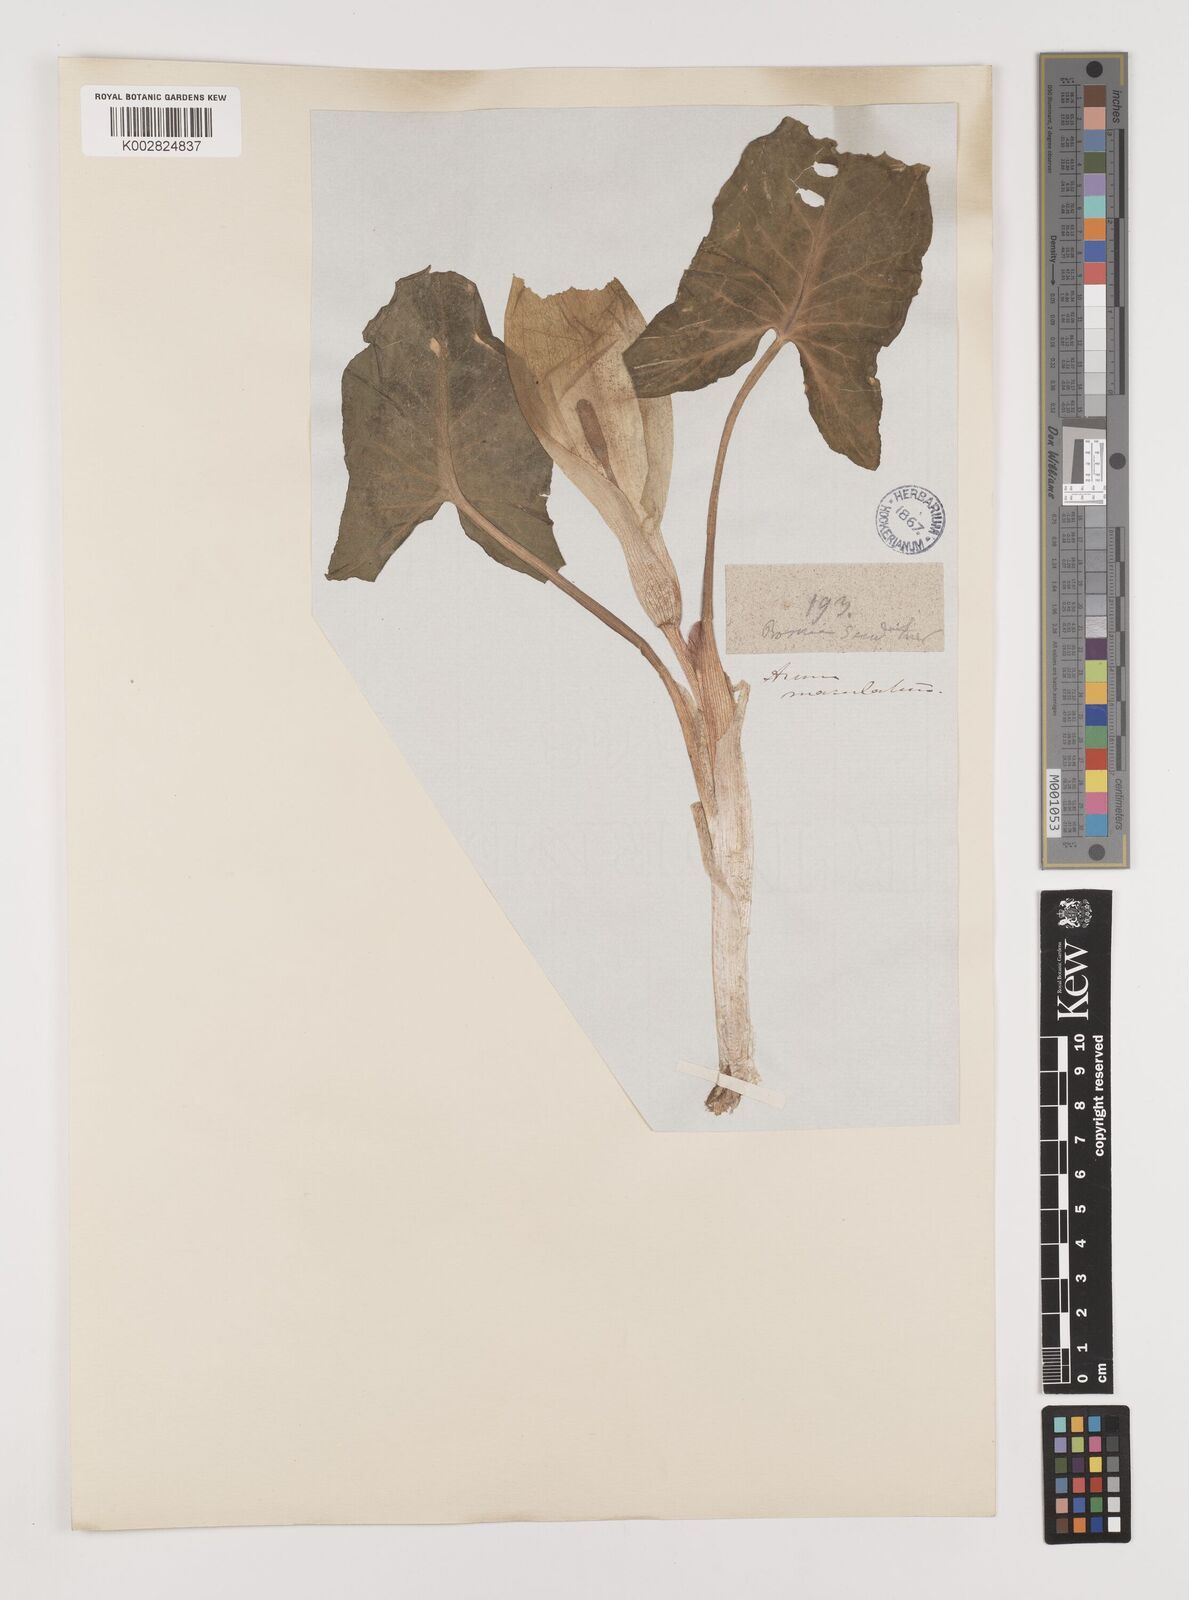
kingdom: Plantae
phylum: Tracheophyta
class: Liliopsida
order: Alismatales
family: Araceae
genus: Arum
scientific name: Arum maculatum
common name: Lords-and-ladies
